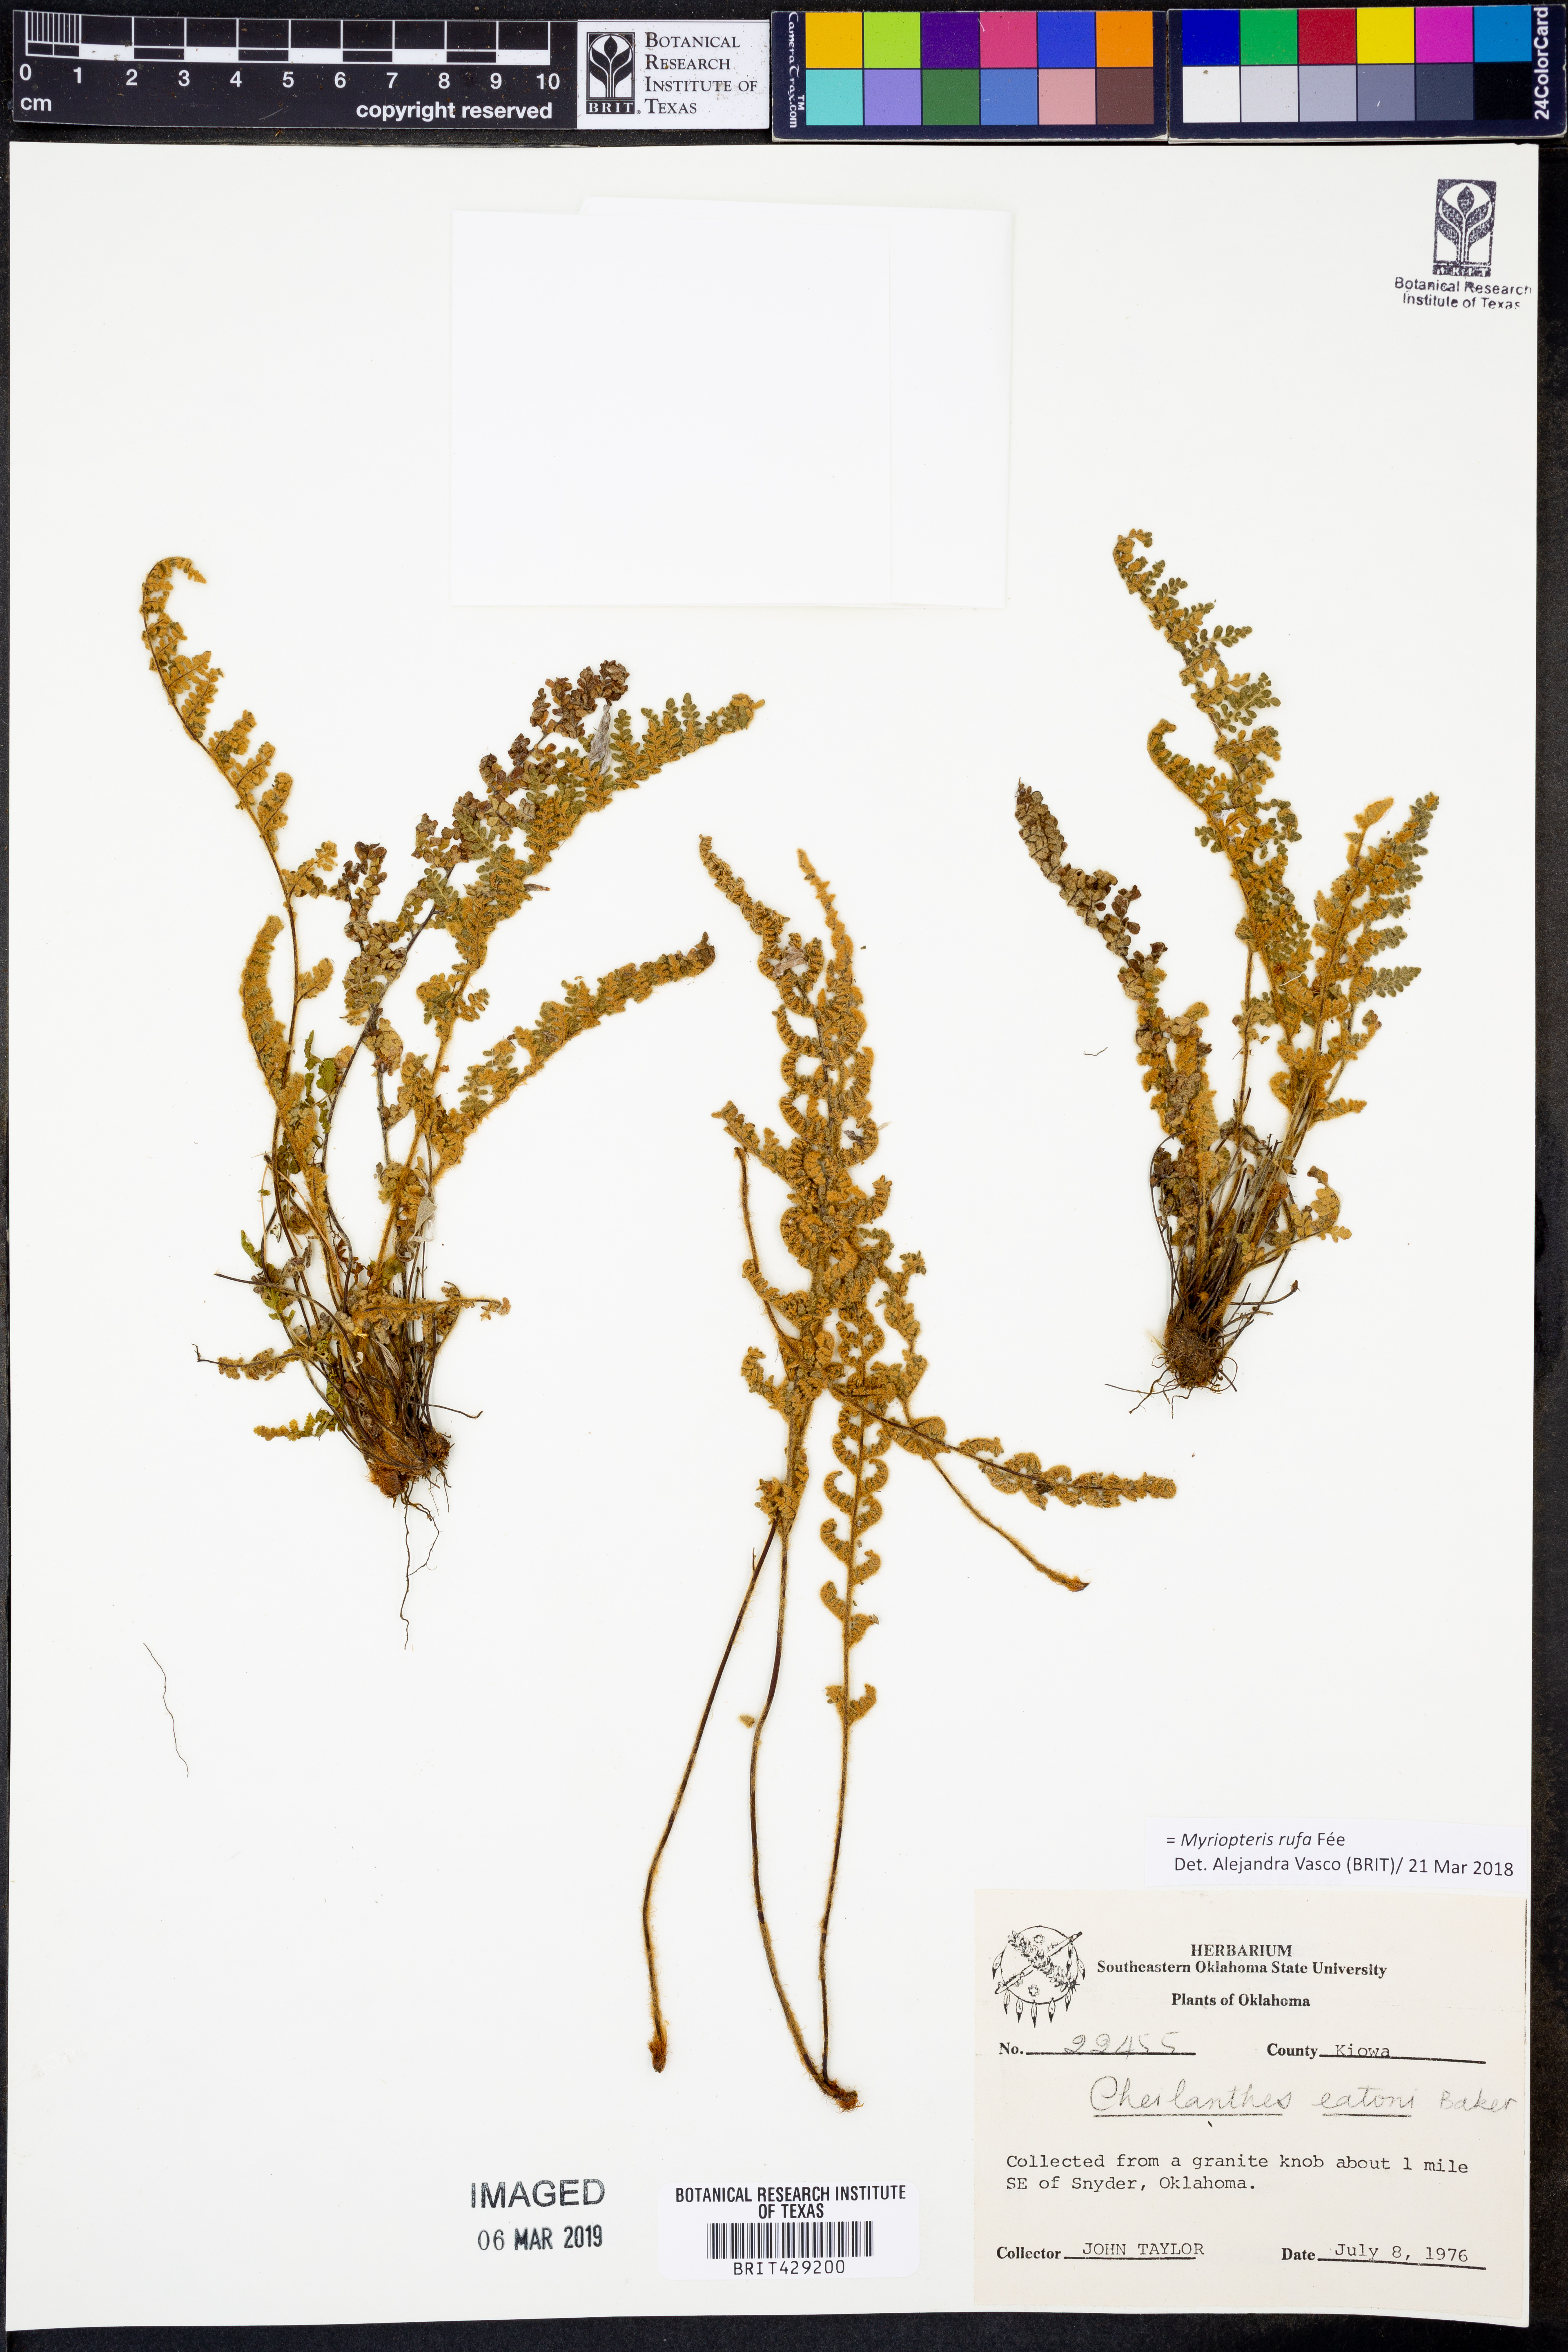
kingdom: Plantae
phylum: Tracheophyta
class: Polypodiopsida
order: Polypodiales
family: Pteridaceae
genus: Myriopteris
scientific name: Myriopteris rufa
